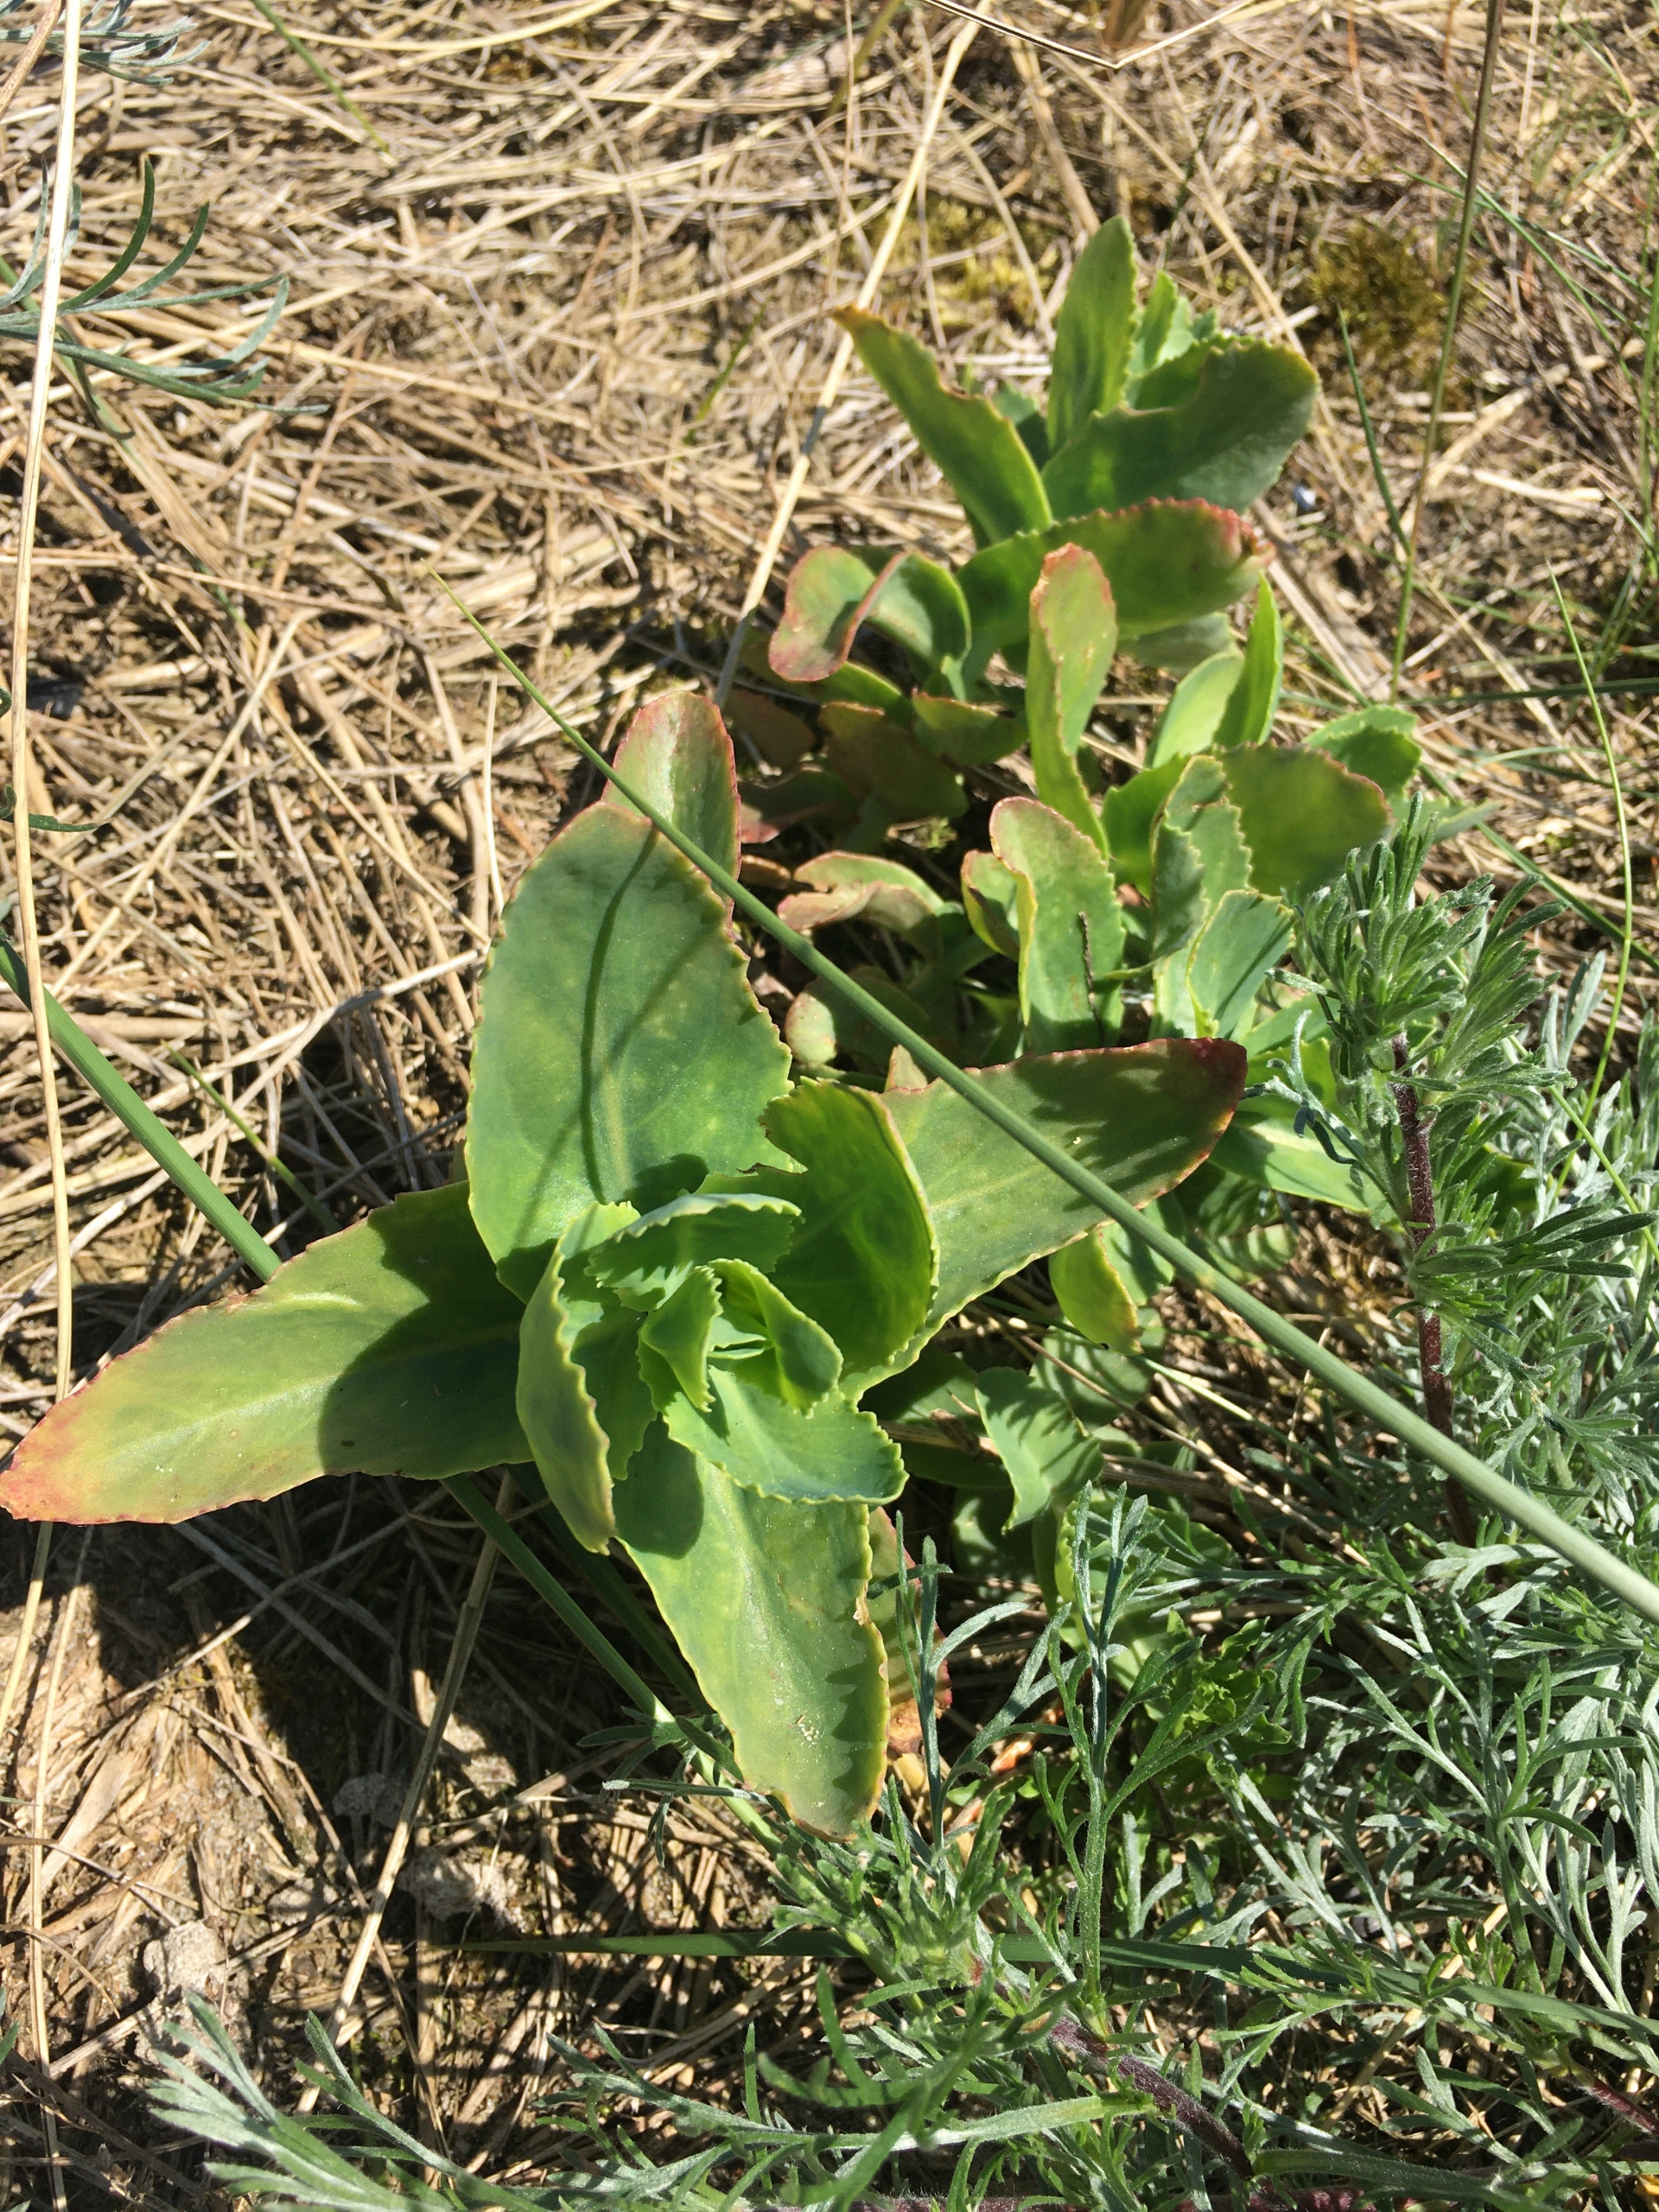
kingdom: Plantae
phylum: Tracheophyta
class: Magnoliopsida
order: Saxifragales
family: Crassulaceae
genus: Hylotelephium
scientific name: Hylotelephium telephium
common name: Sankthansurt
